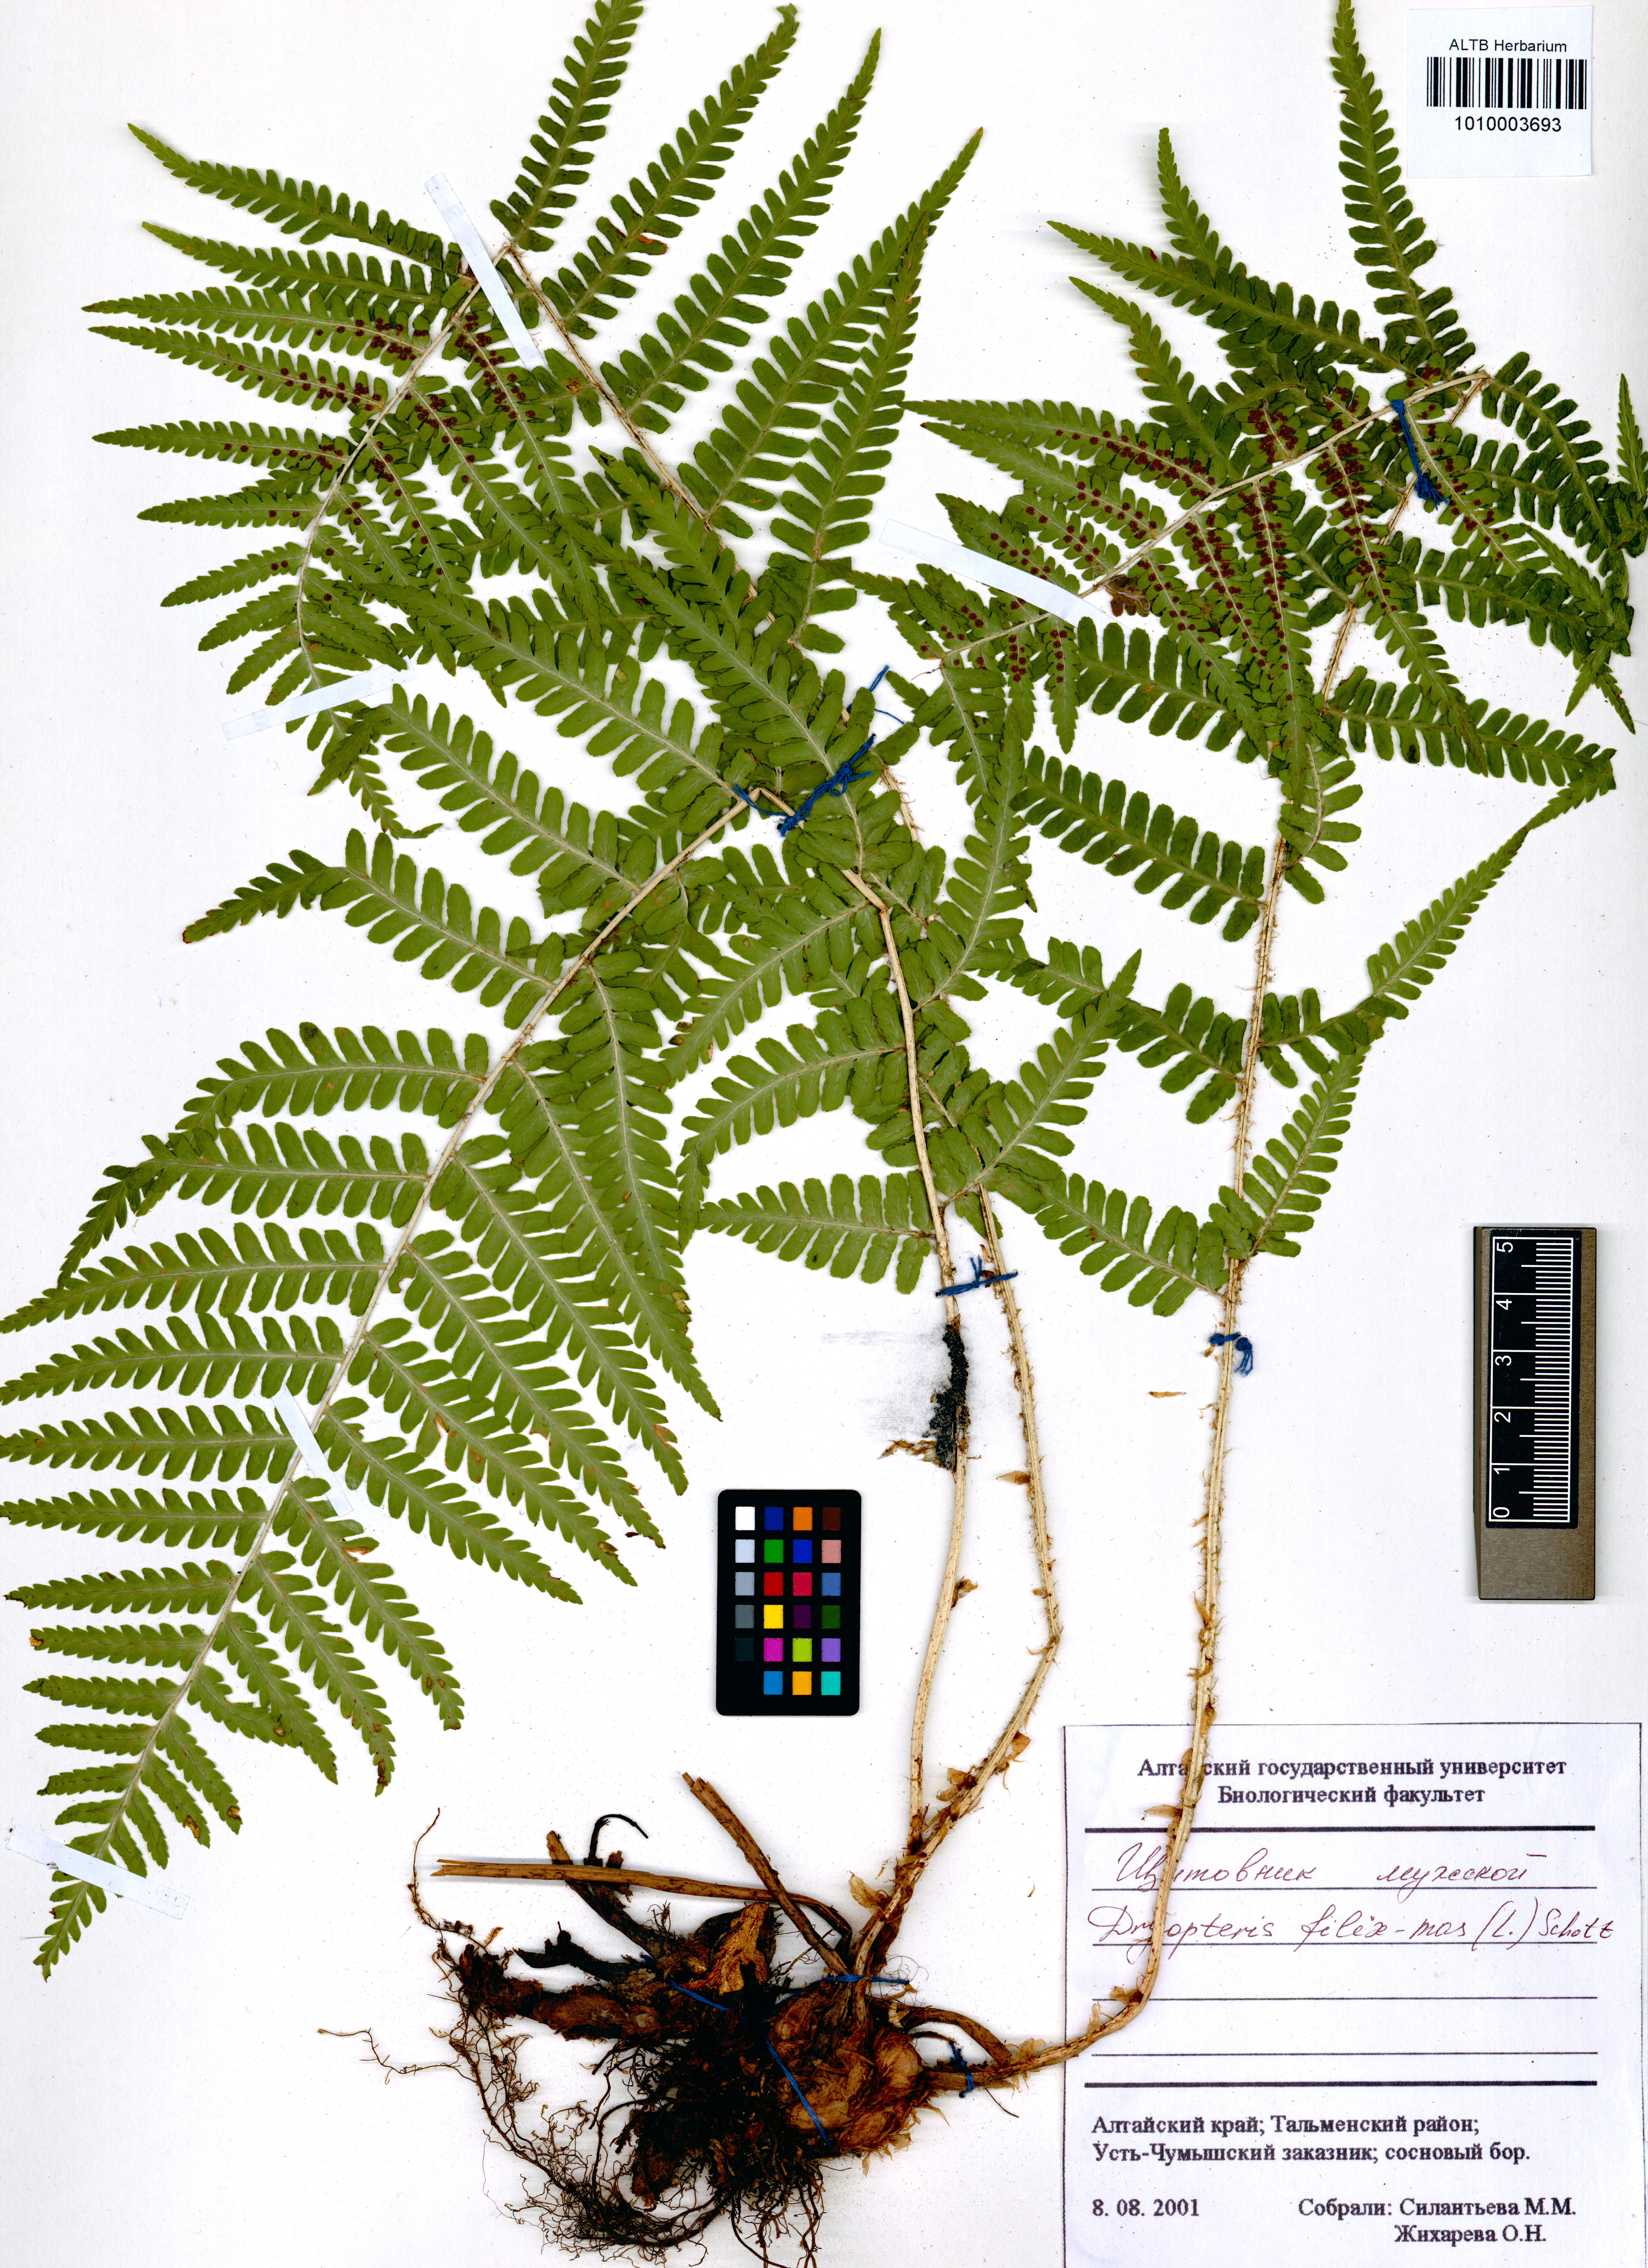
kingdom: Plantae
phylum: Tracheophyta
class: Polypodiopsida
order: Polypodiales
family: Dryopteridaceae
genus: Dryopteris
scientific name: Dryopteris filix-mas
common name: Male fern
